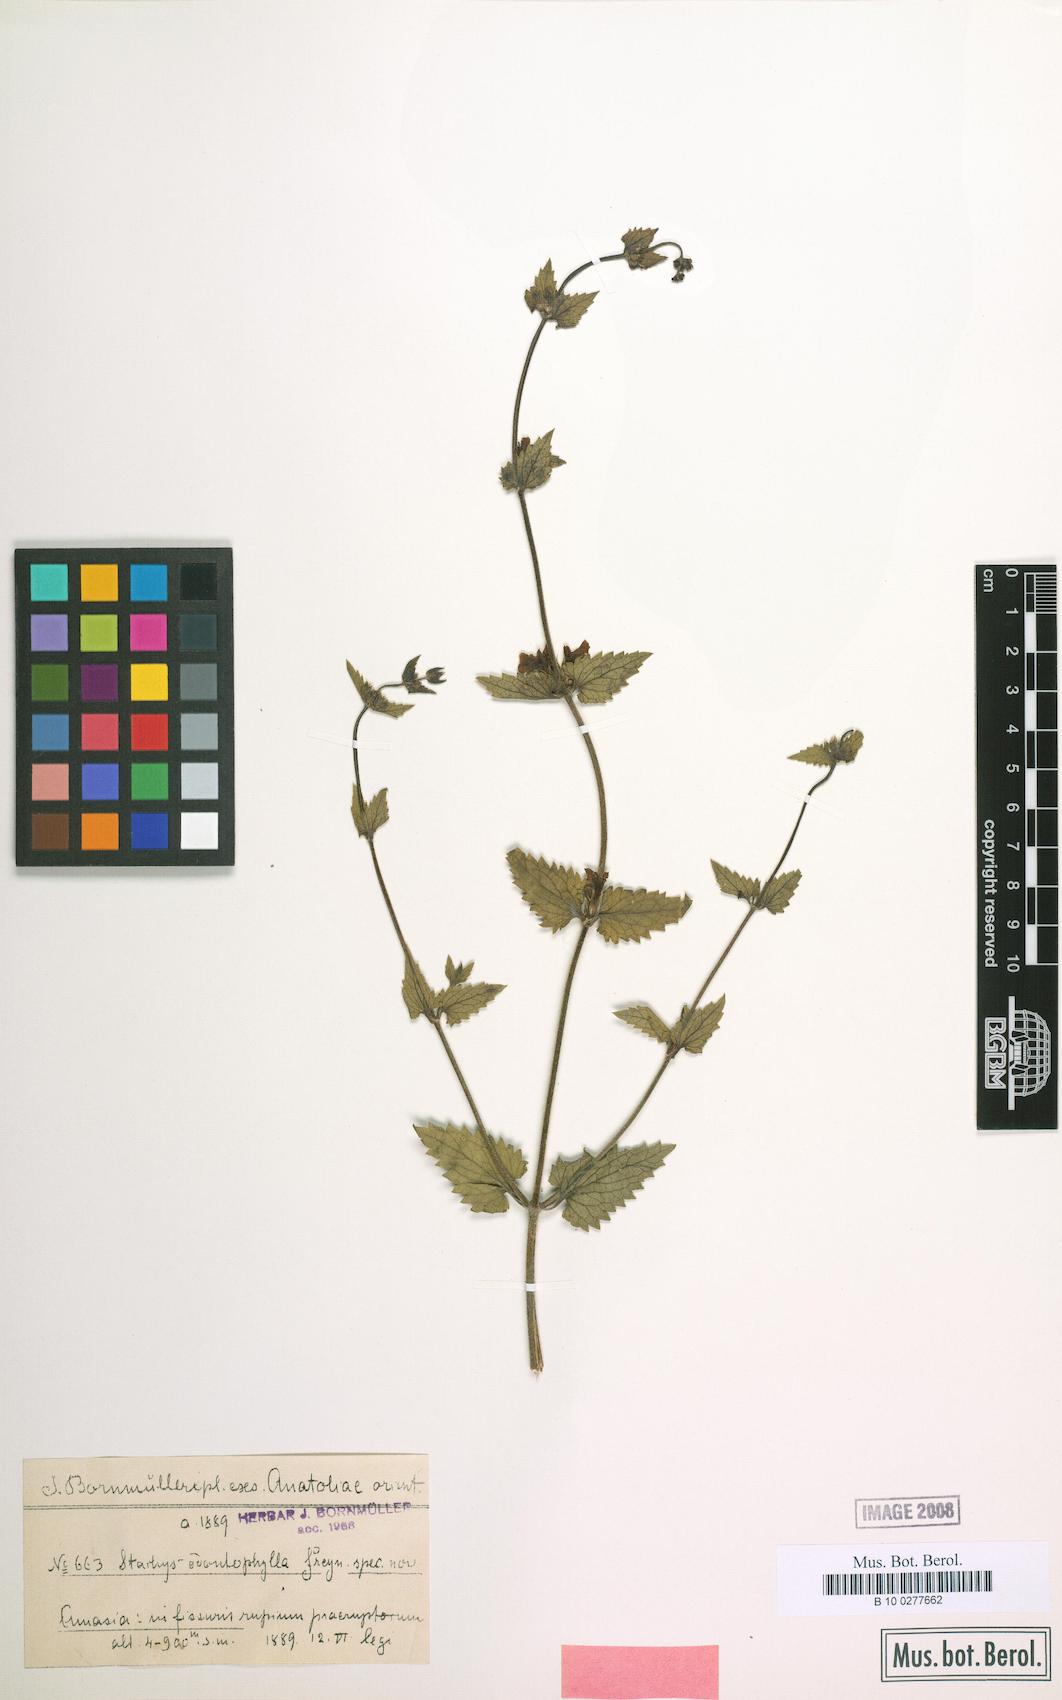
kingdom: Plantae
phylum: Tracheophyta
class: Magnoliopsida
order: Lamiales
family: Lamiaceae
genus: Stachys
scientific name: Stachys viscosa
